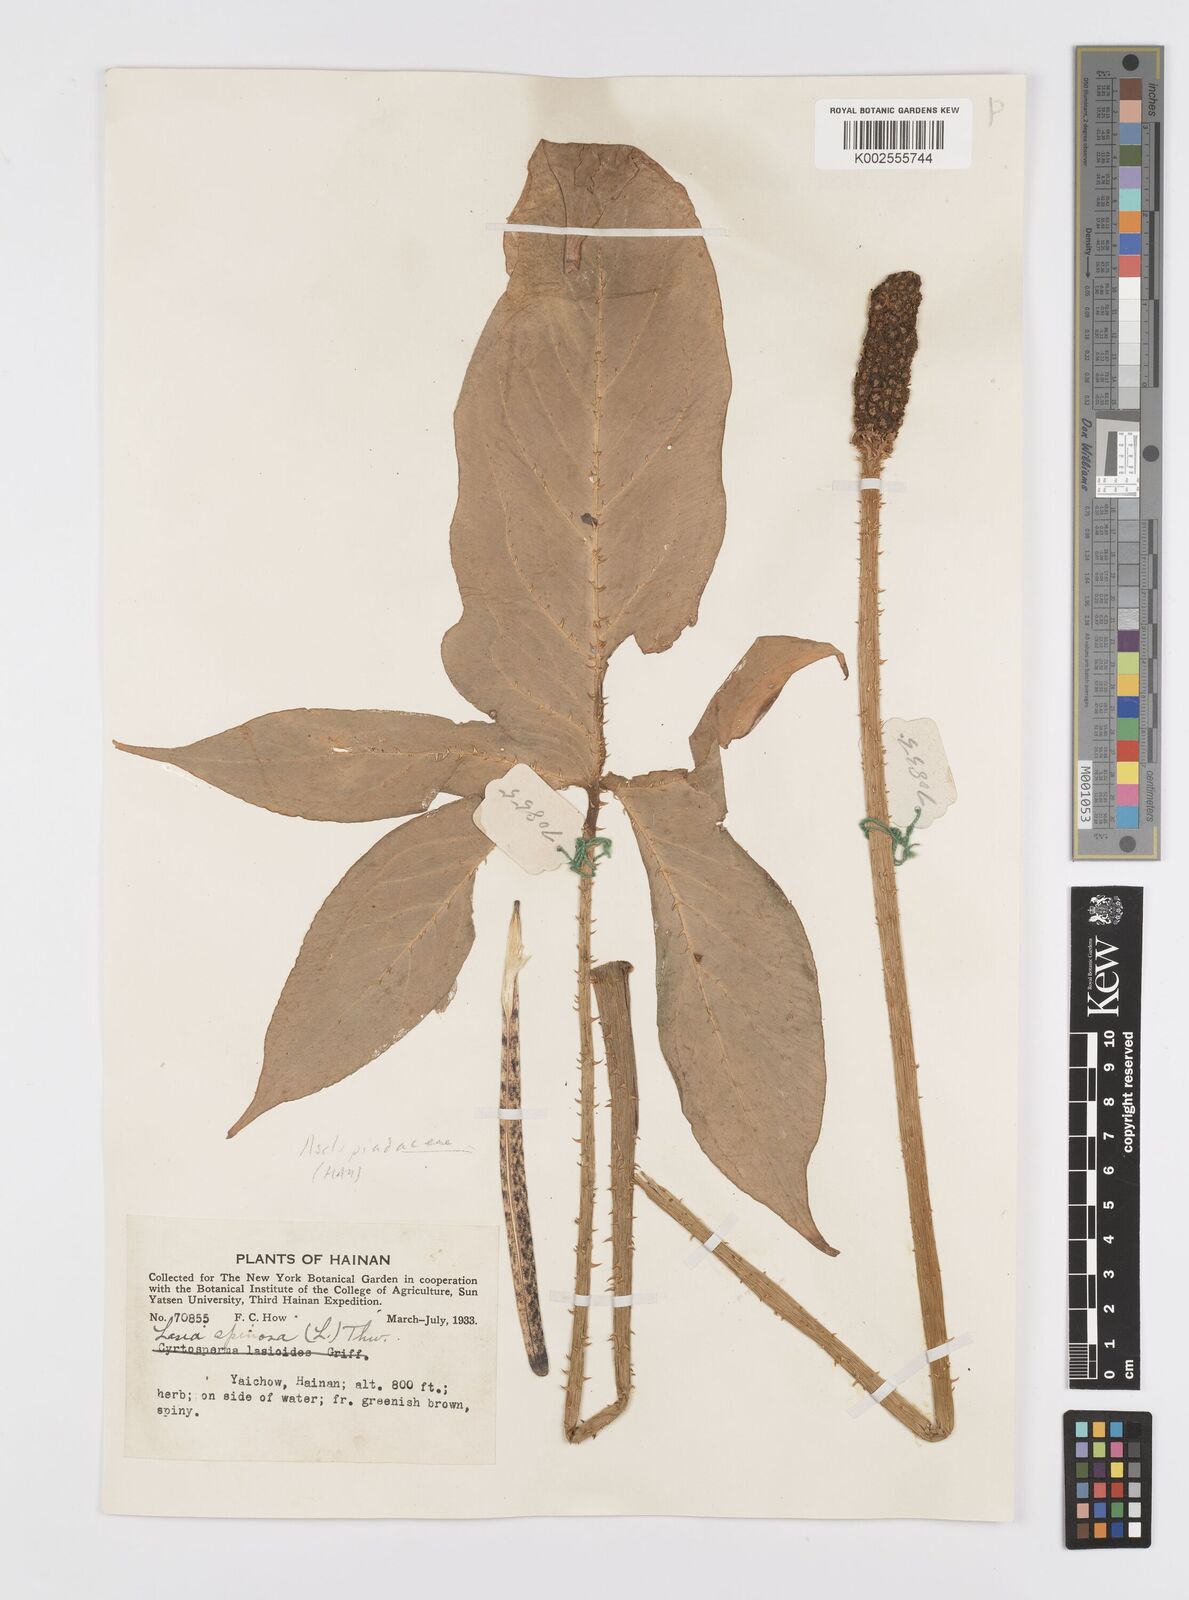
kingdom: Plantae
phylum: Tracheophyta
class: Liliopsida
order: Alismatales
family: Araceae
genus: Lasia
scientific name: Lasia spinosa
